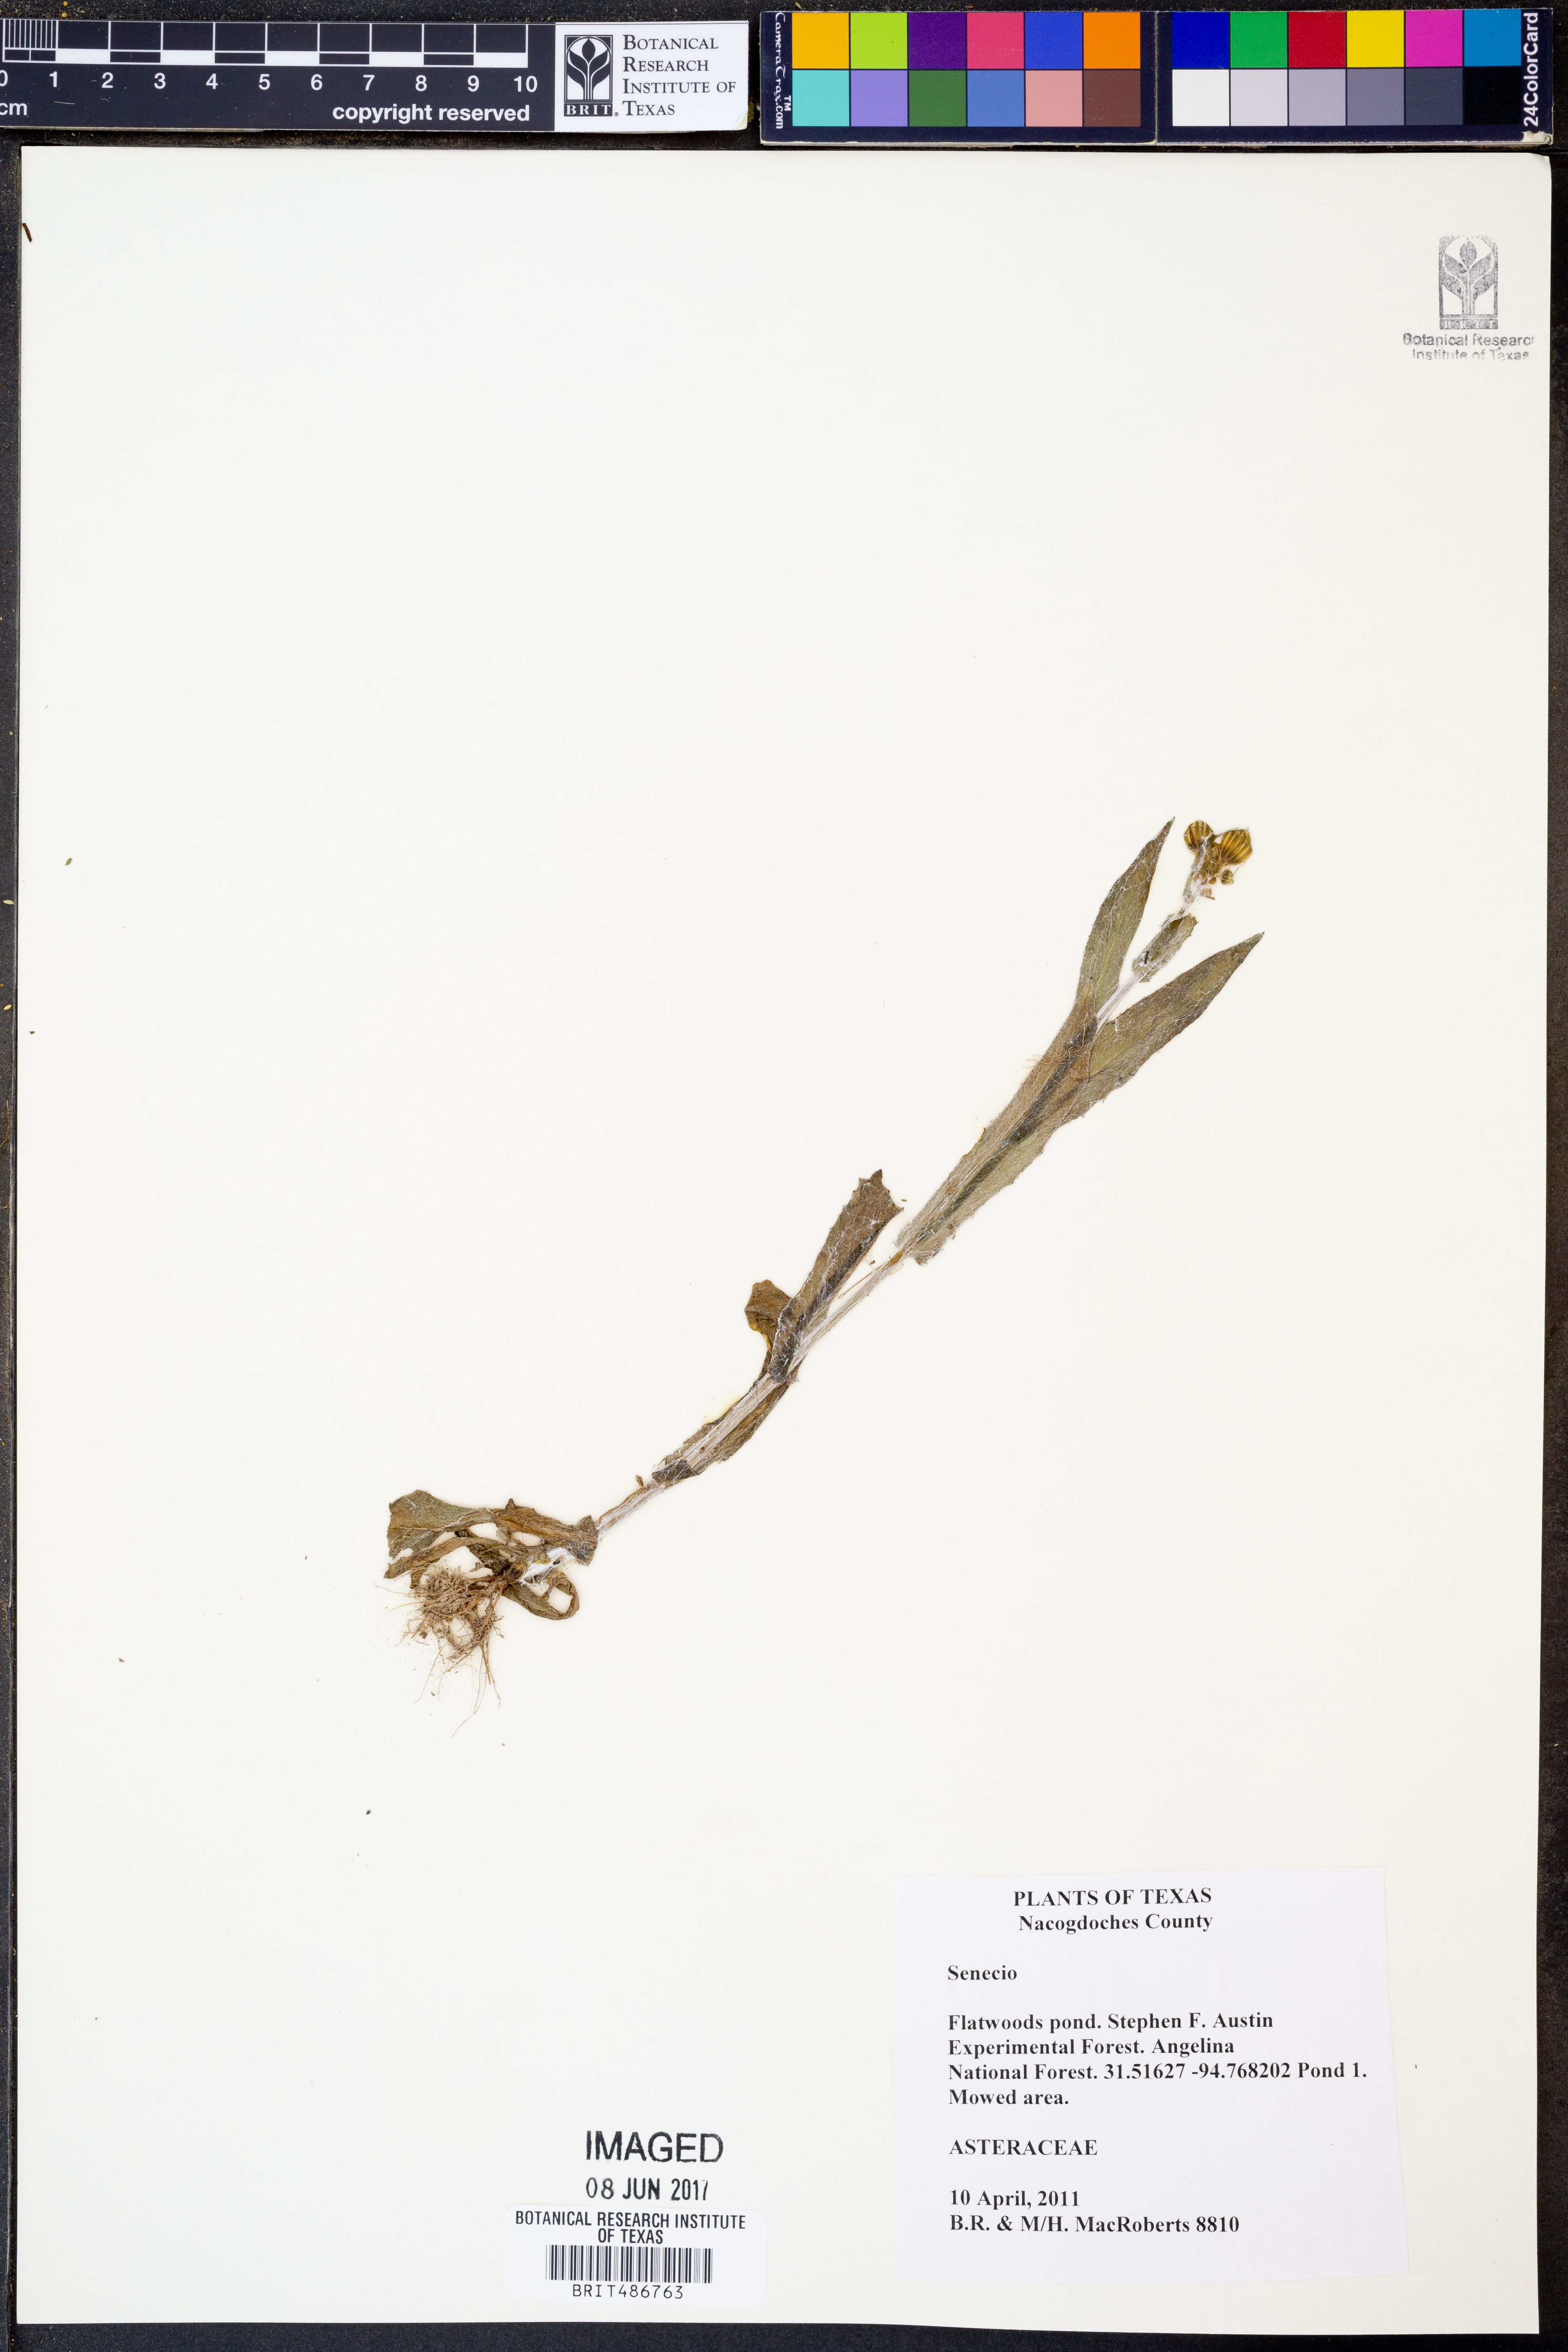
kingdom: Plantae
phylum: Tracheophyta
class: Magnoliopsida
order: Asterales
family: Asteraceae
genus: Senecio
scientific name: Senecio
